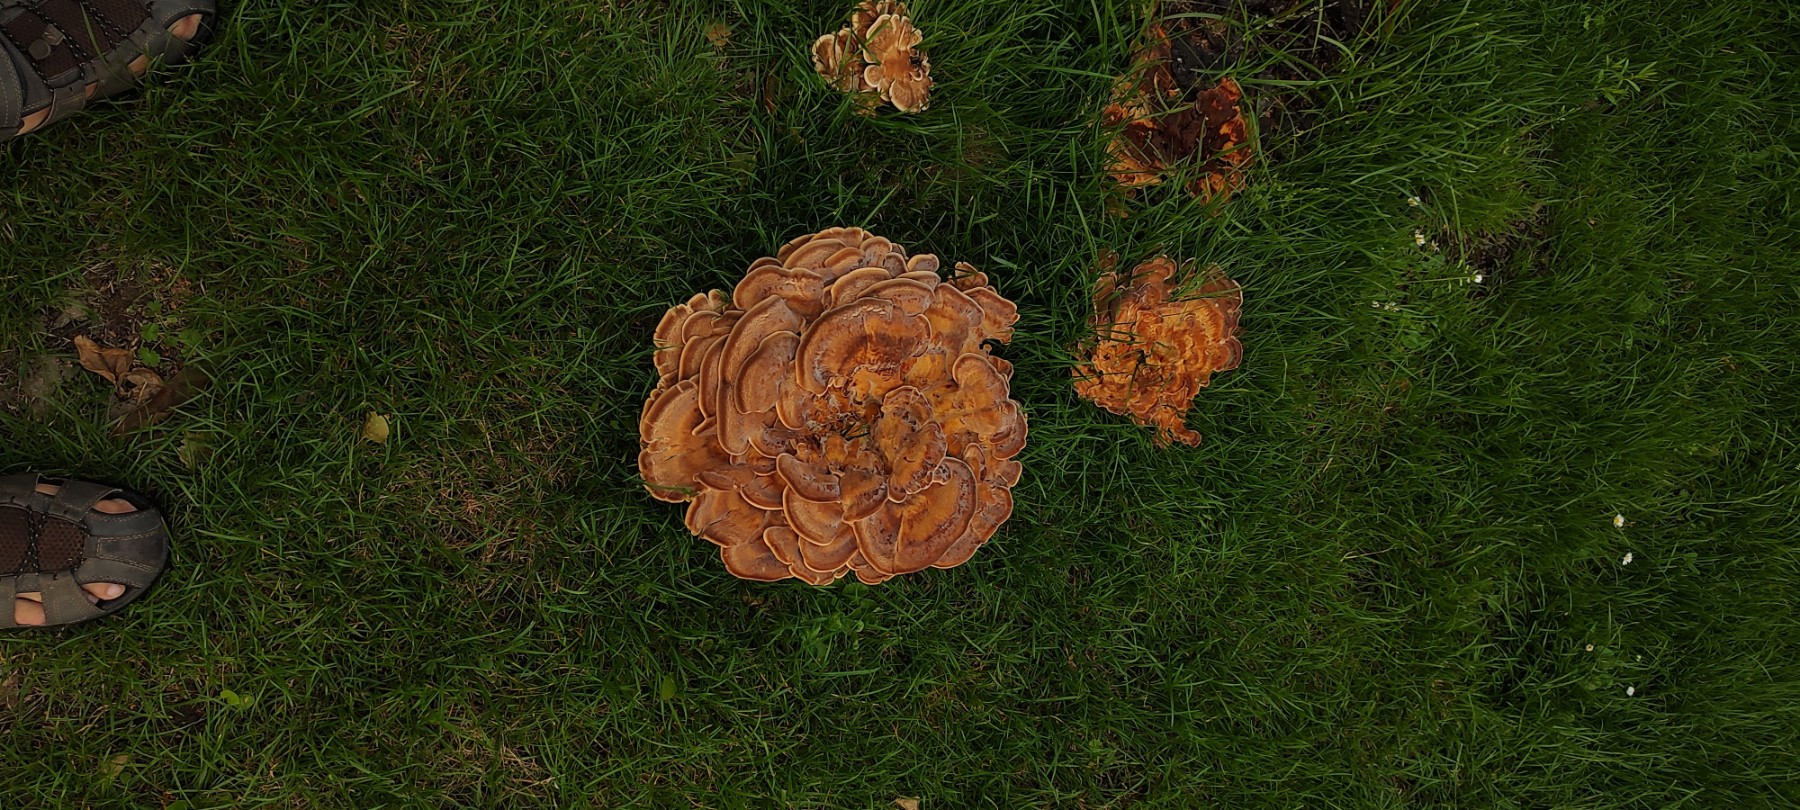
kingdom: Fungi
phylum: Basidiomycota
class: Agaricomycetes
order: Polyporales
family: Meripilaceae
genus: Meripilus
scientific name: Meripilus giganteus
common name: kæmpeporesvamp
